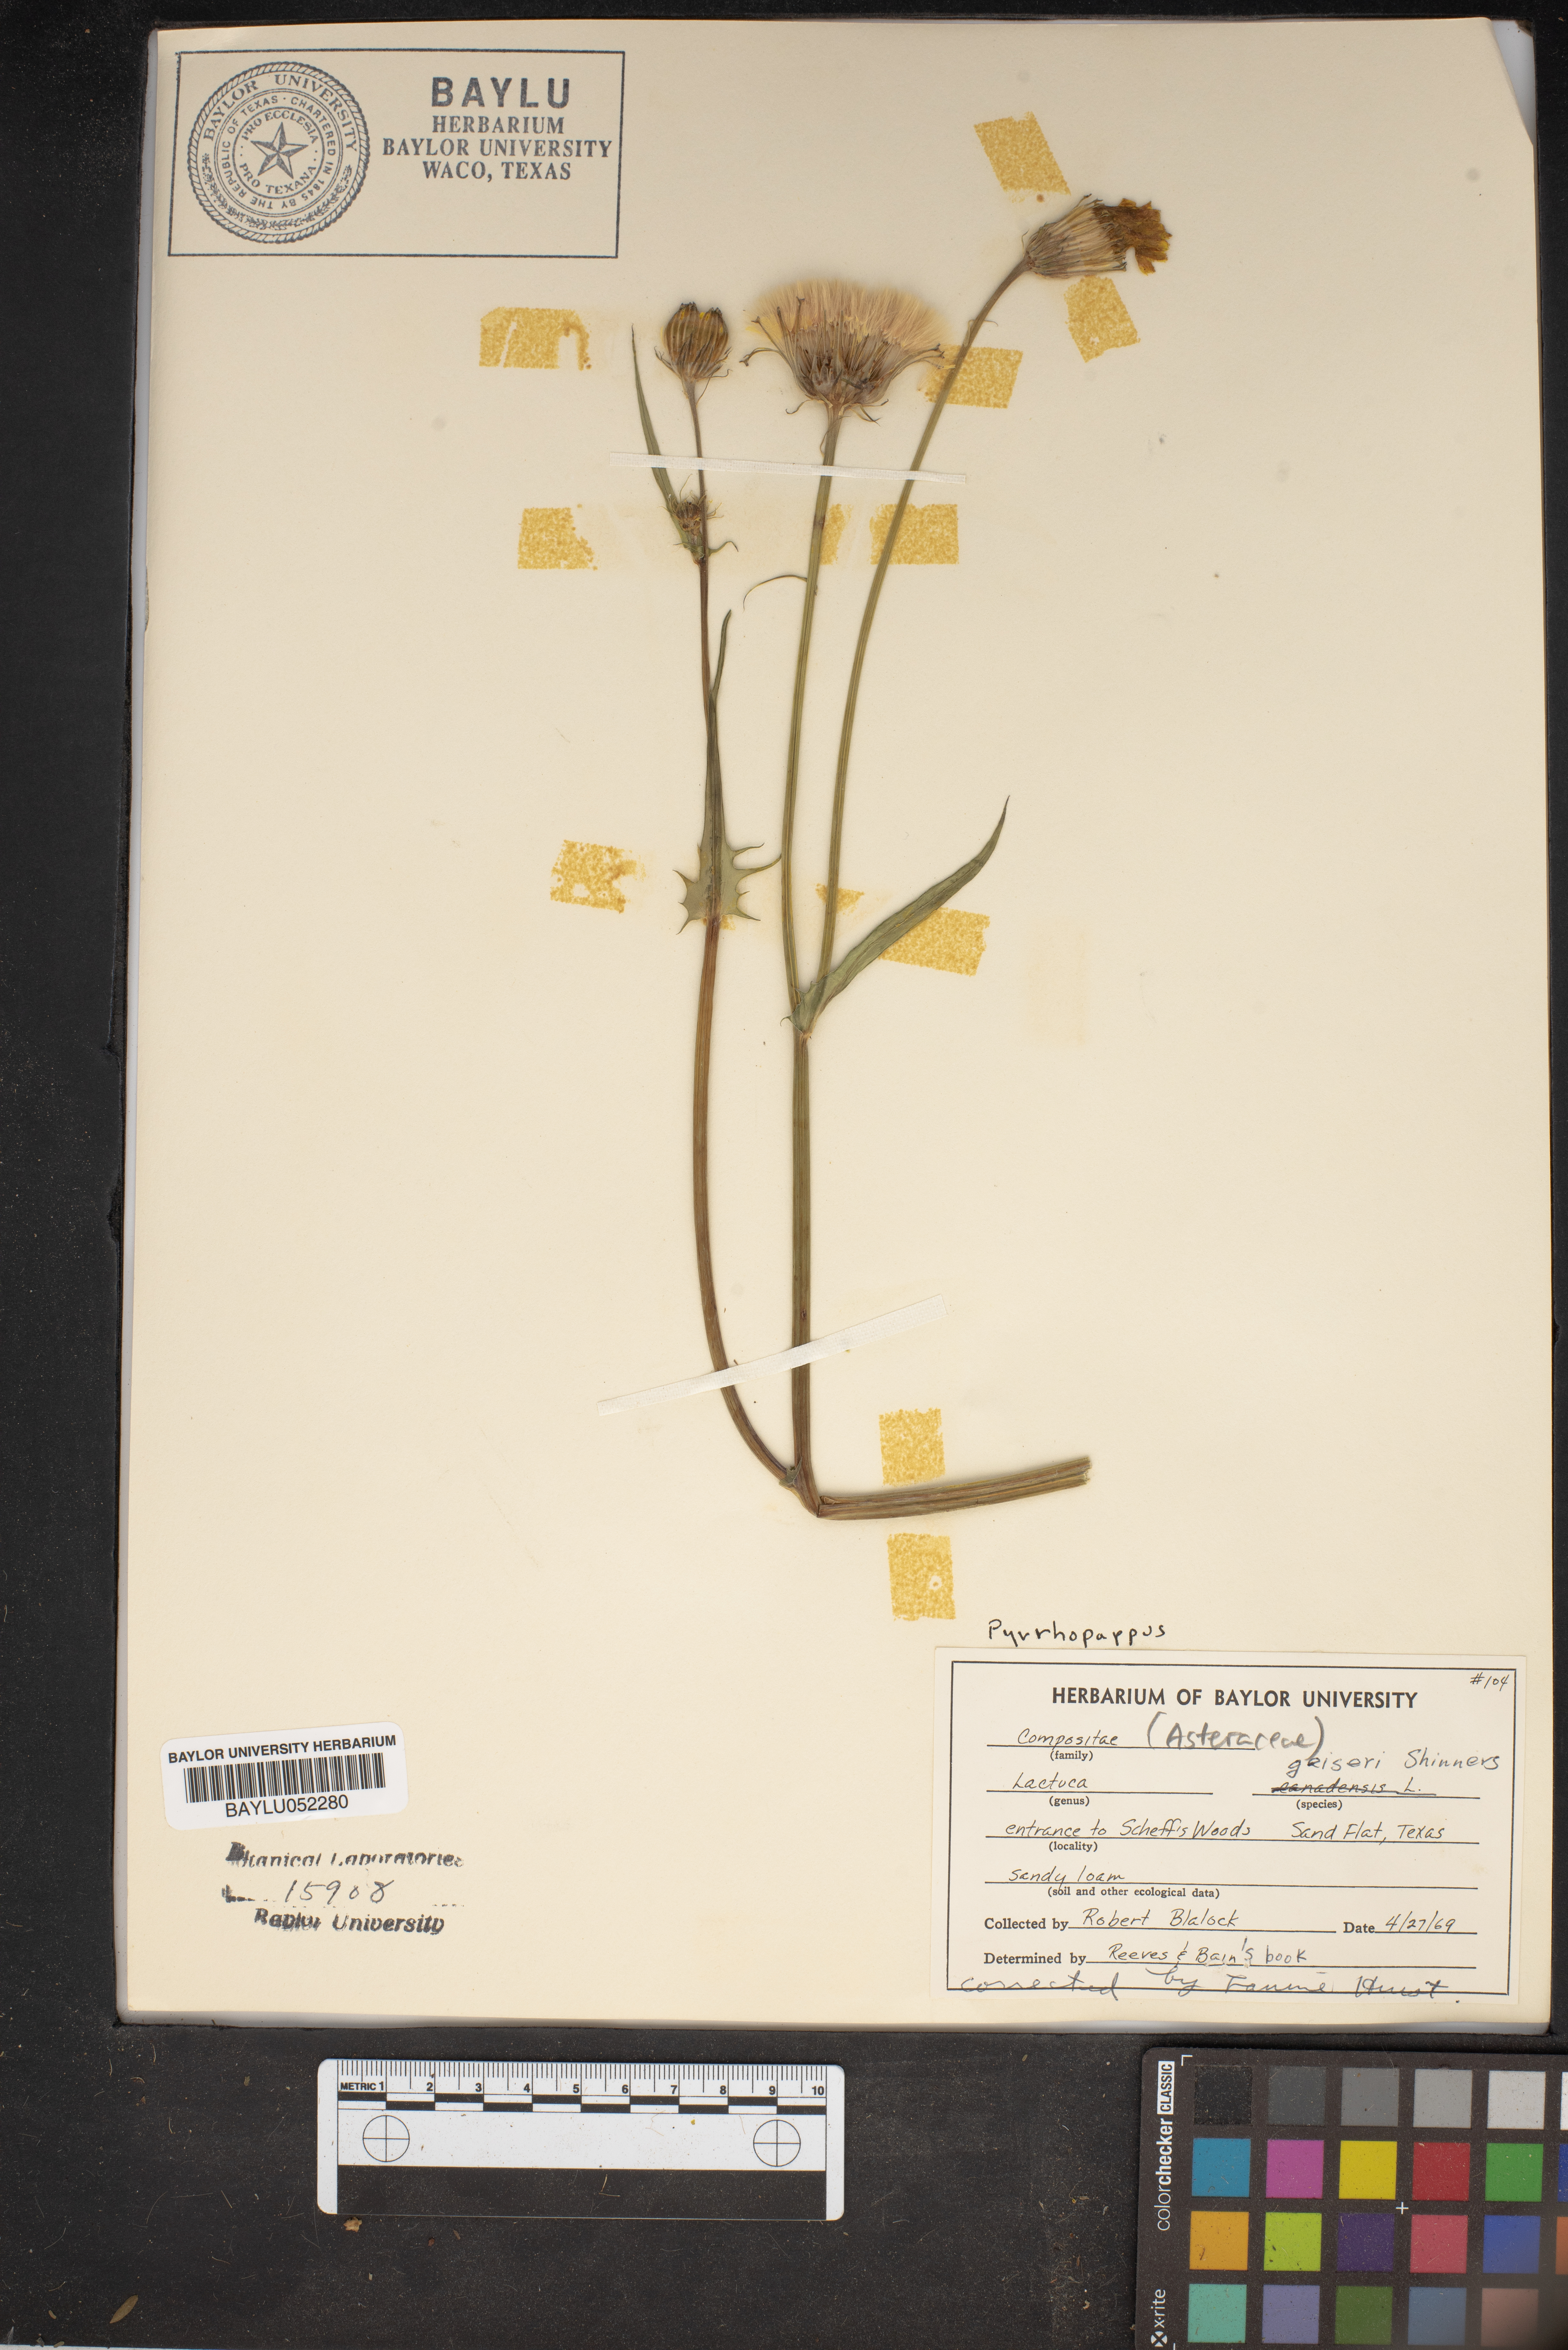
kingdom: Plantae
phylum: Tracheophyta
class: Magnoliopsida
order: Asterales
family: Asteraceae
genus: Lactuca
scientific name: Lactuca
